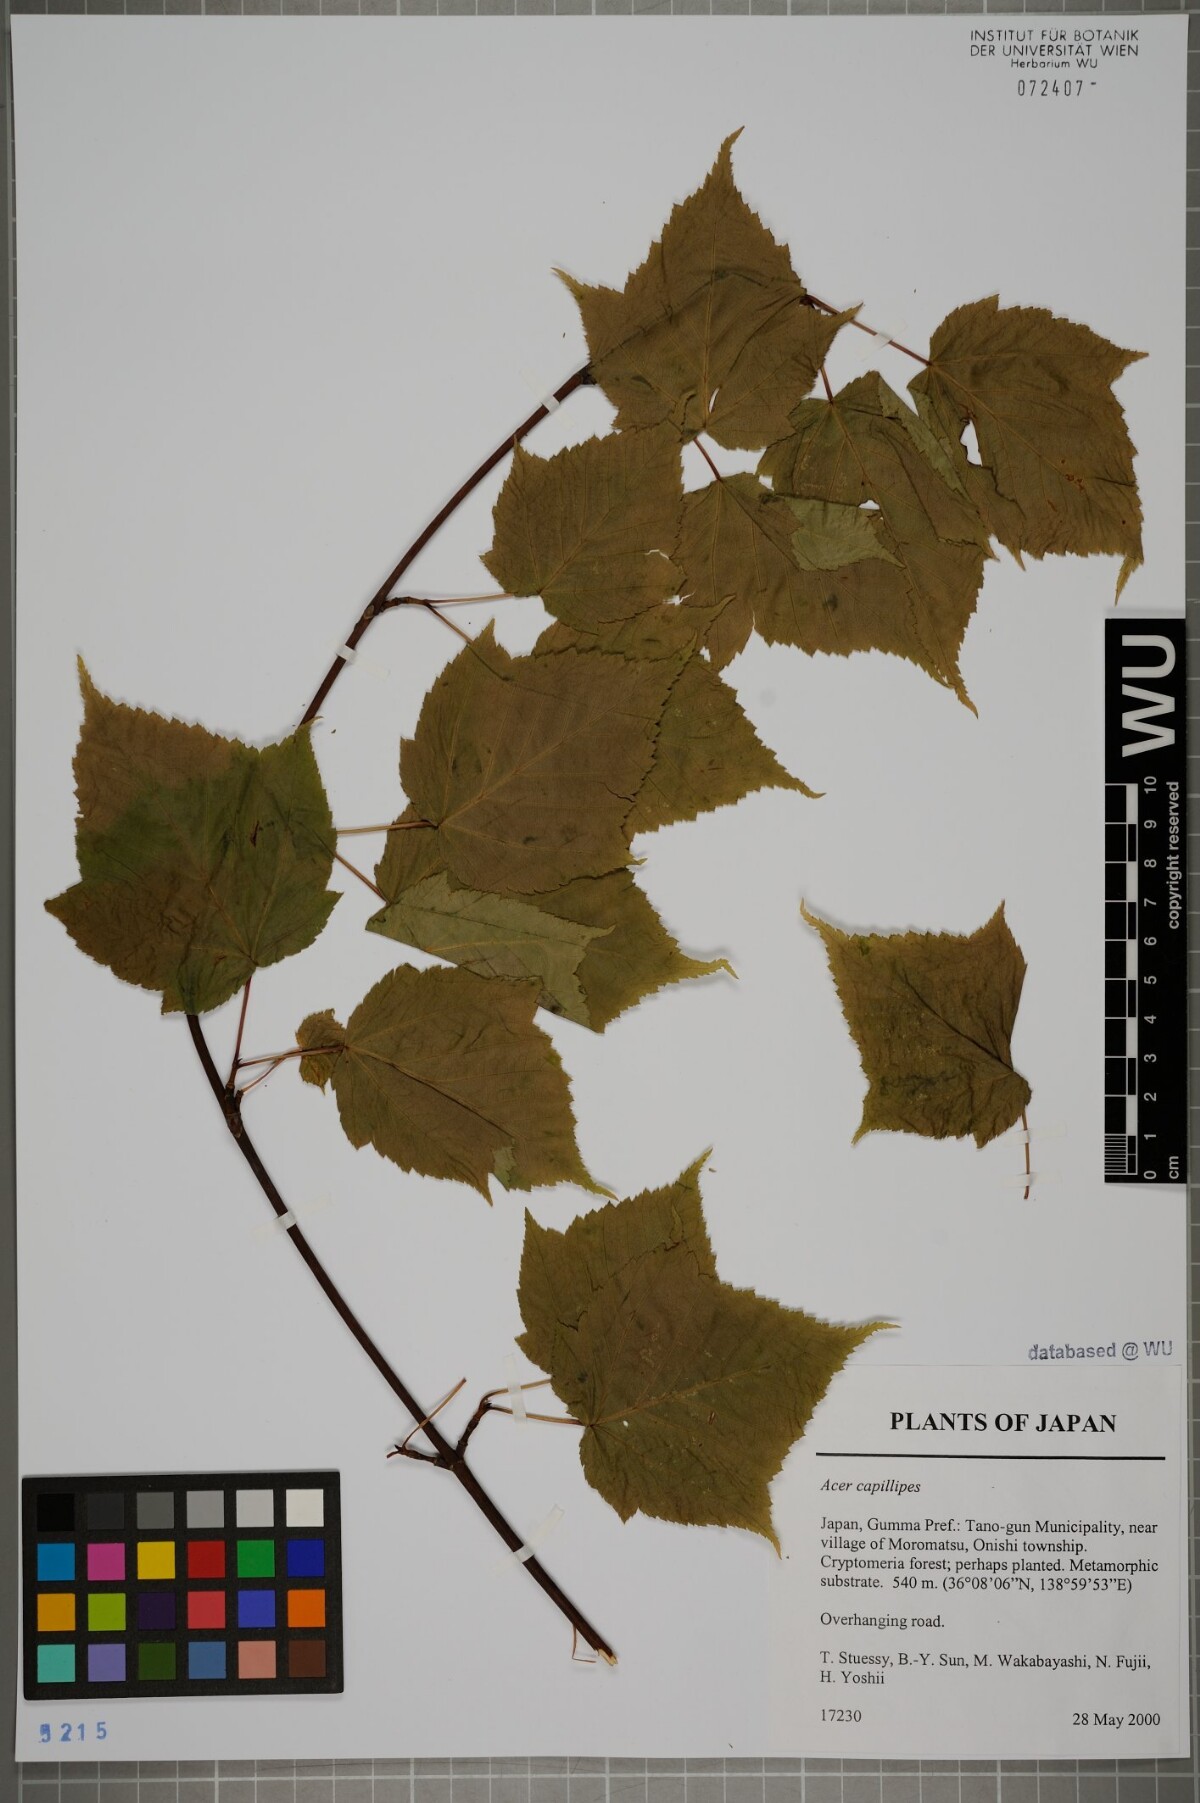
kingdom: Plantae
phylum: Tracheophyta
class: Magnoliopsida
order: Sapindales
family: Sapindaceae
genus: Acer
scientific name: Acer capillipes
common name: Kyushu maple
